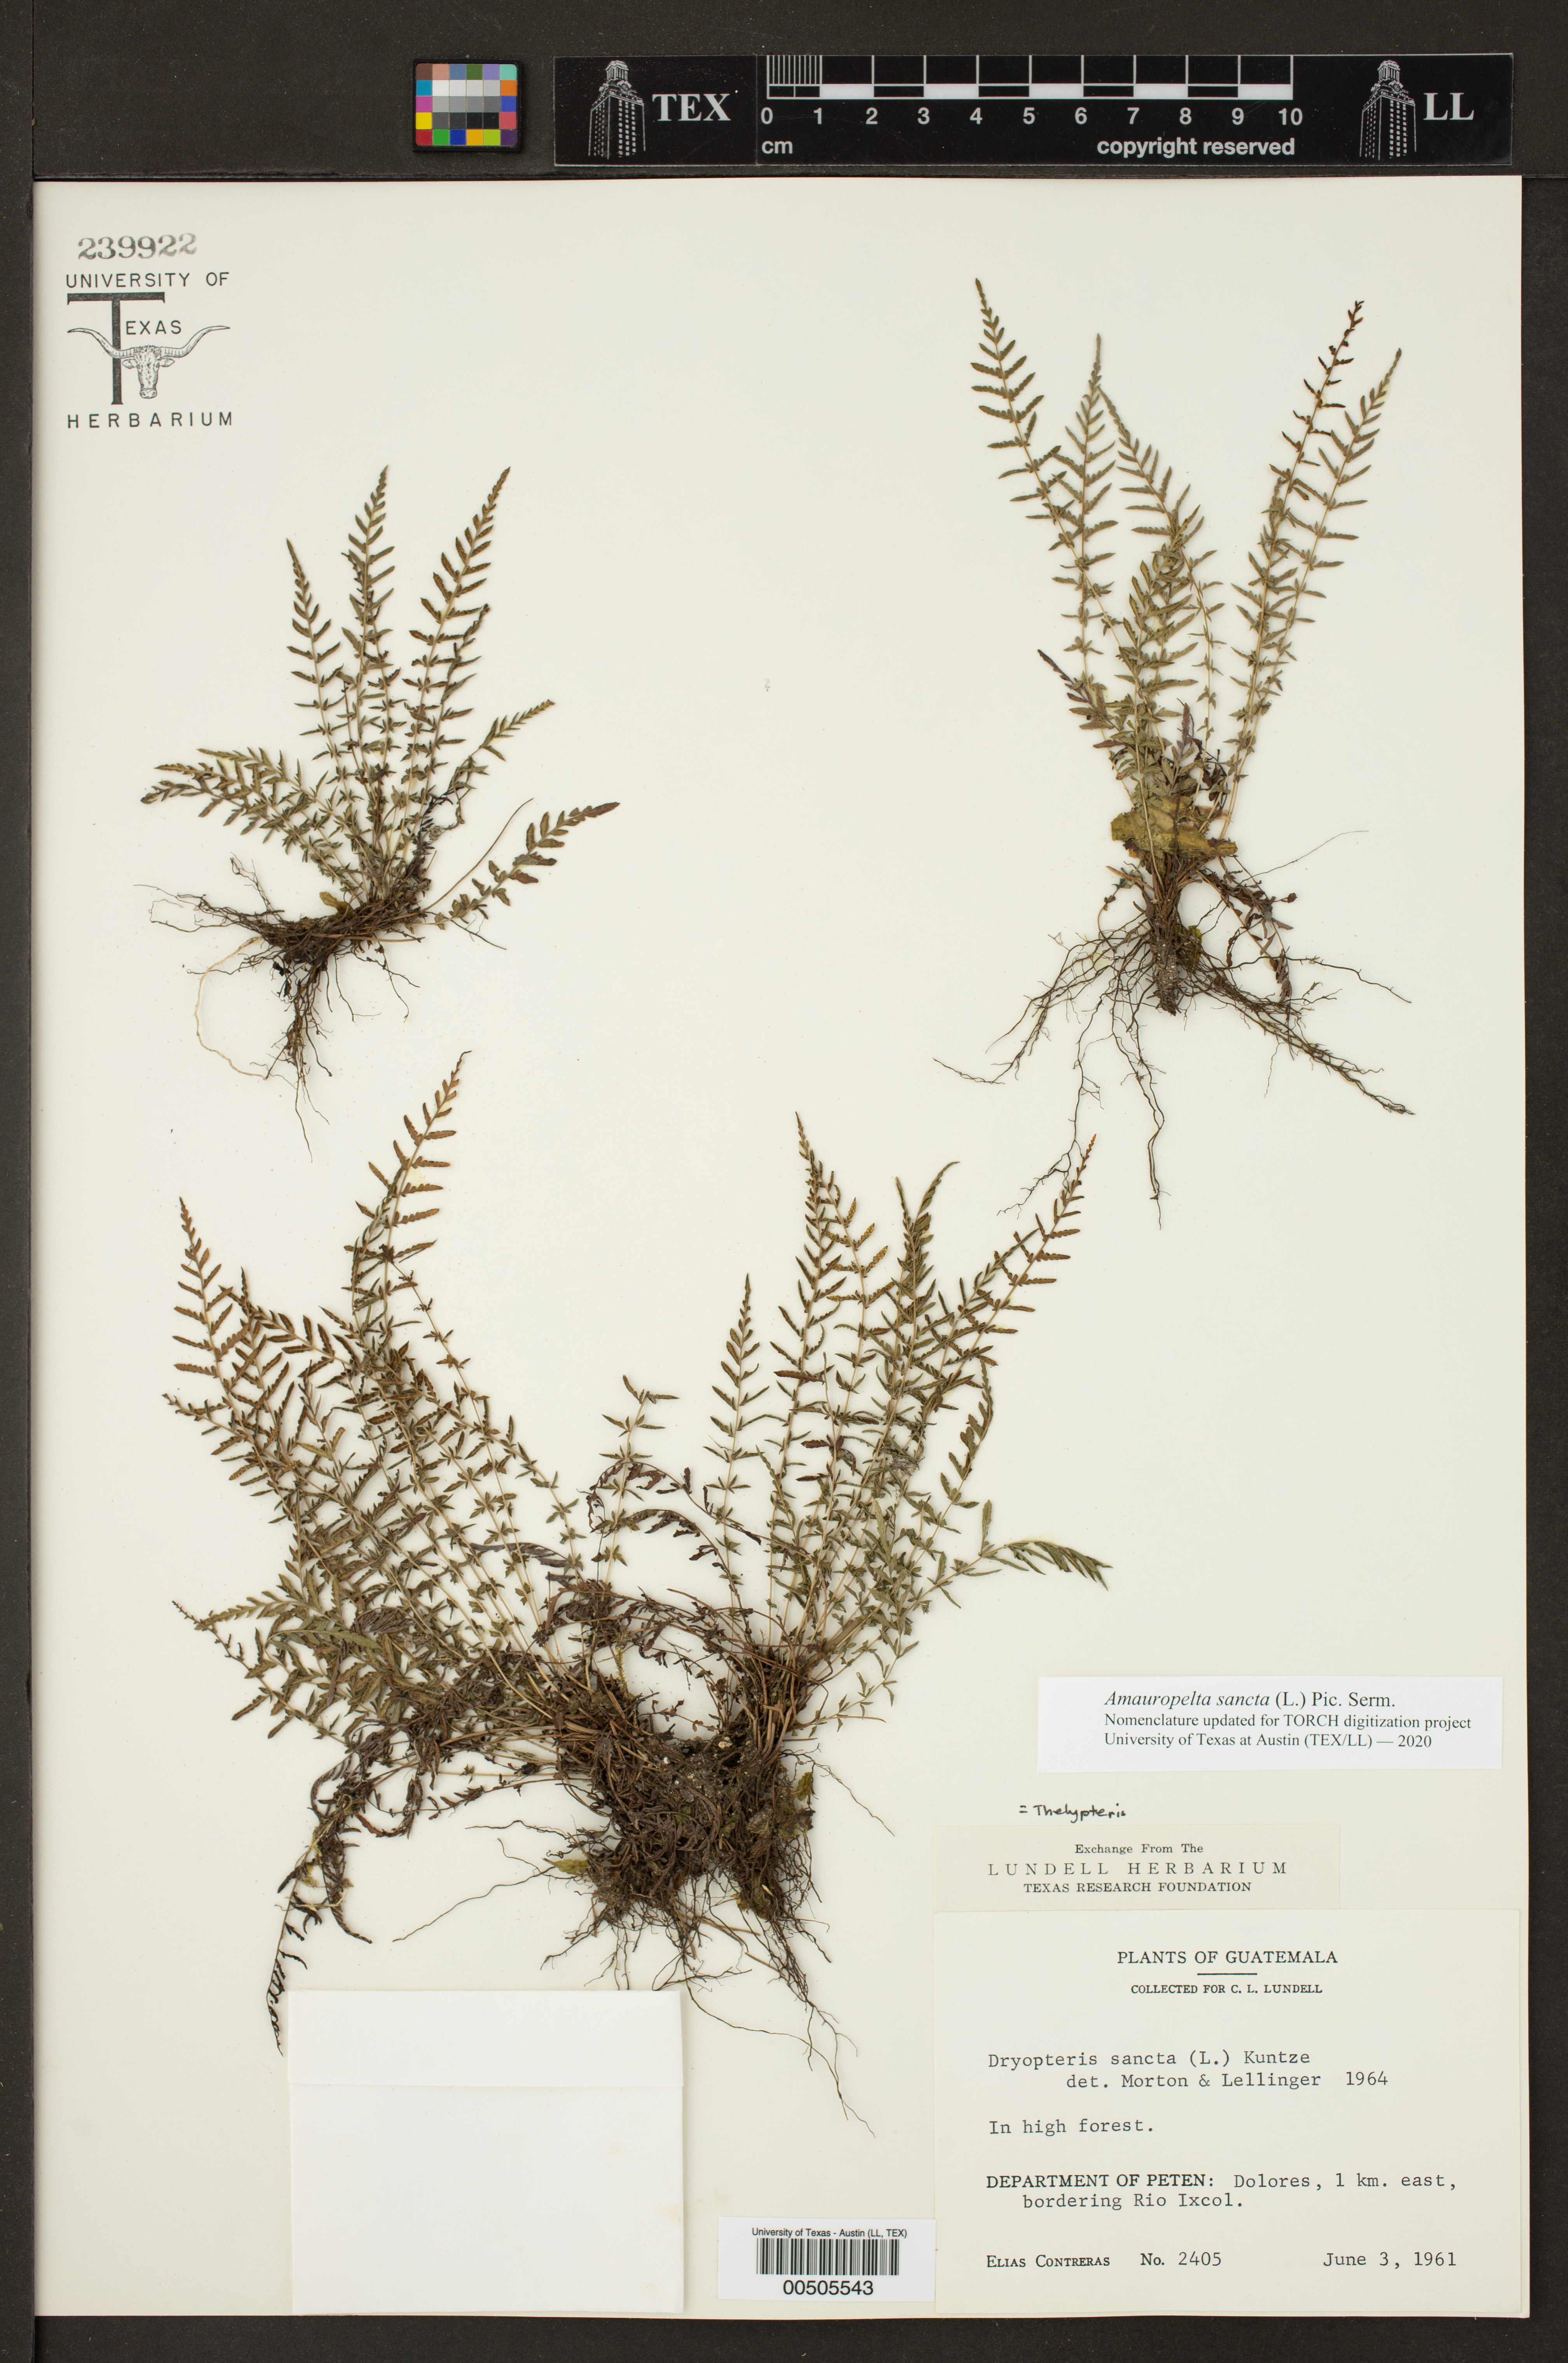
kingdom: Plantae
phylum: Tracheophyta
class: Polypodiopsida
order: Polypodiales
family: Thelypteridaceae
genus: Amauropelta
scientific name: Amauropelta cruciata
